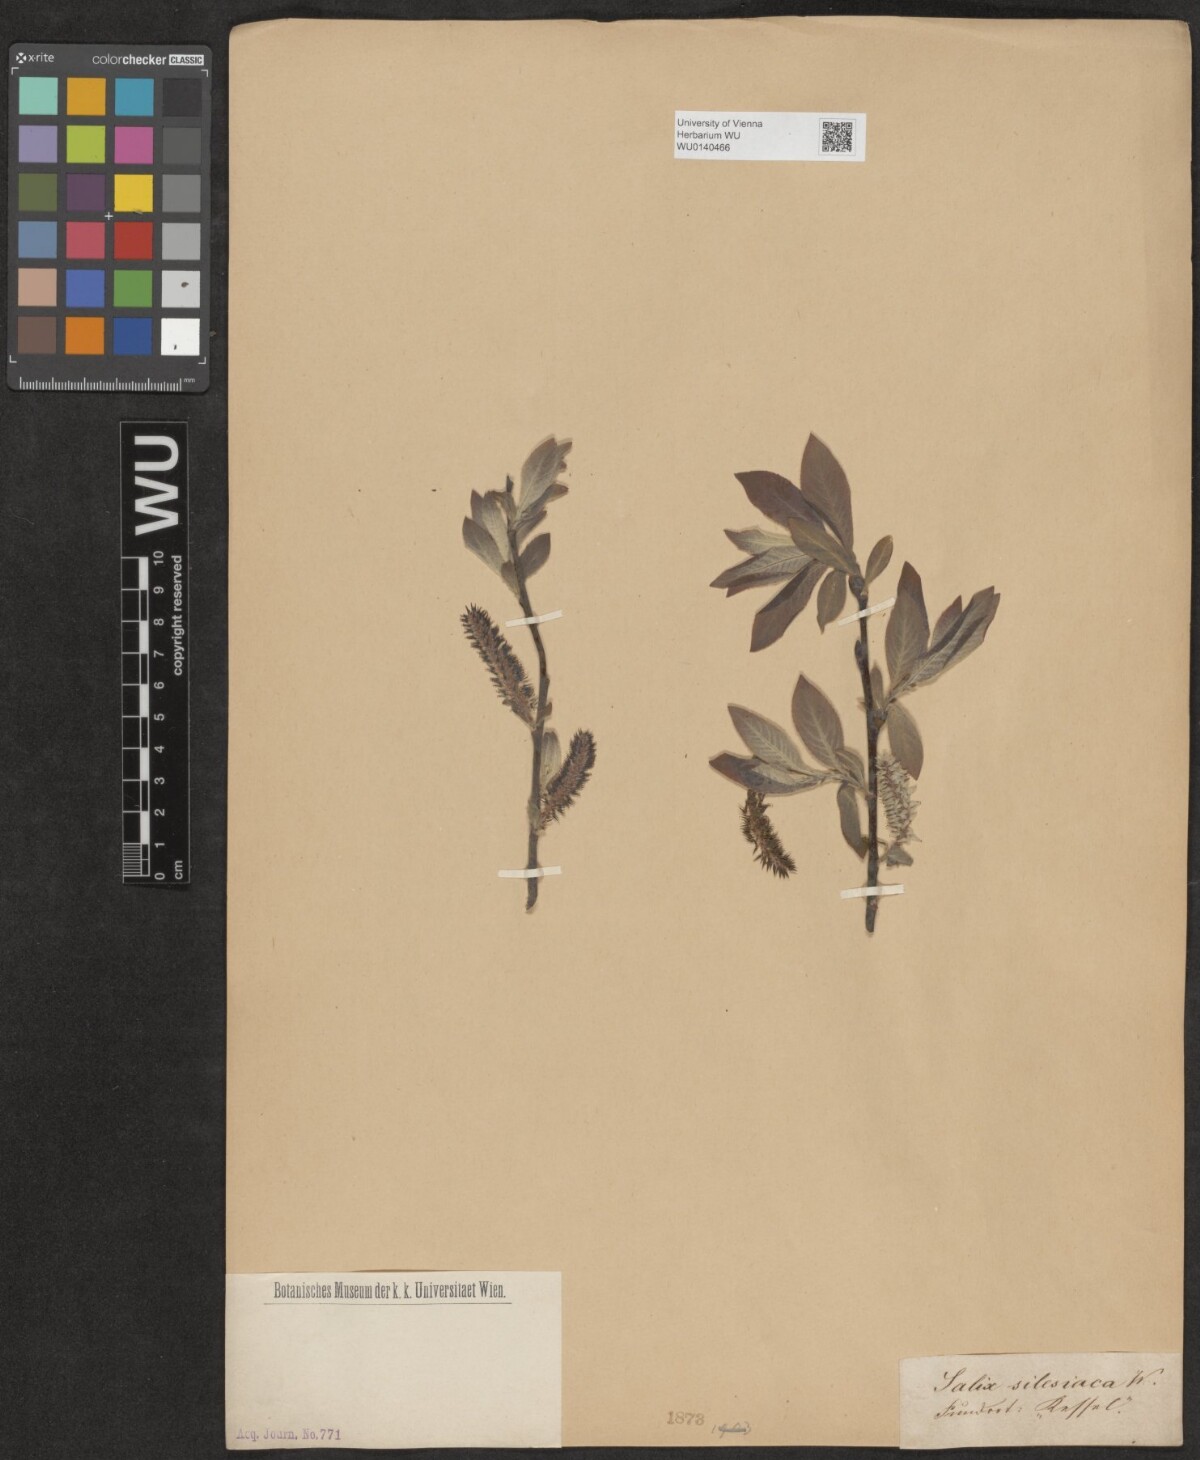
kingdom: Plantae
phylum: Tracheophyta
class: Magnoliopsida
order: Malpighiales
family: Salicaceae
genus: Salix
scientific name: Salix silesiaca
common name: Silesian willow
